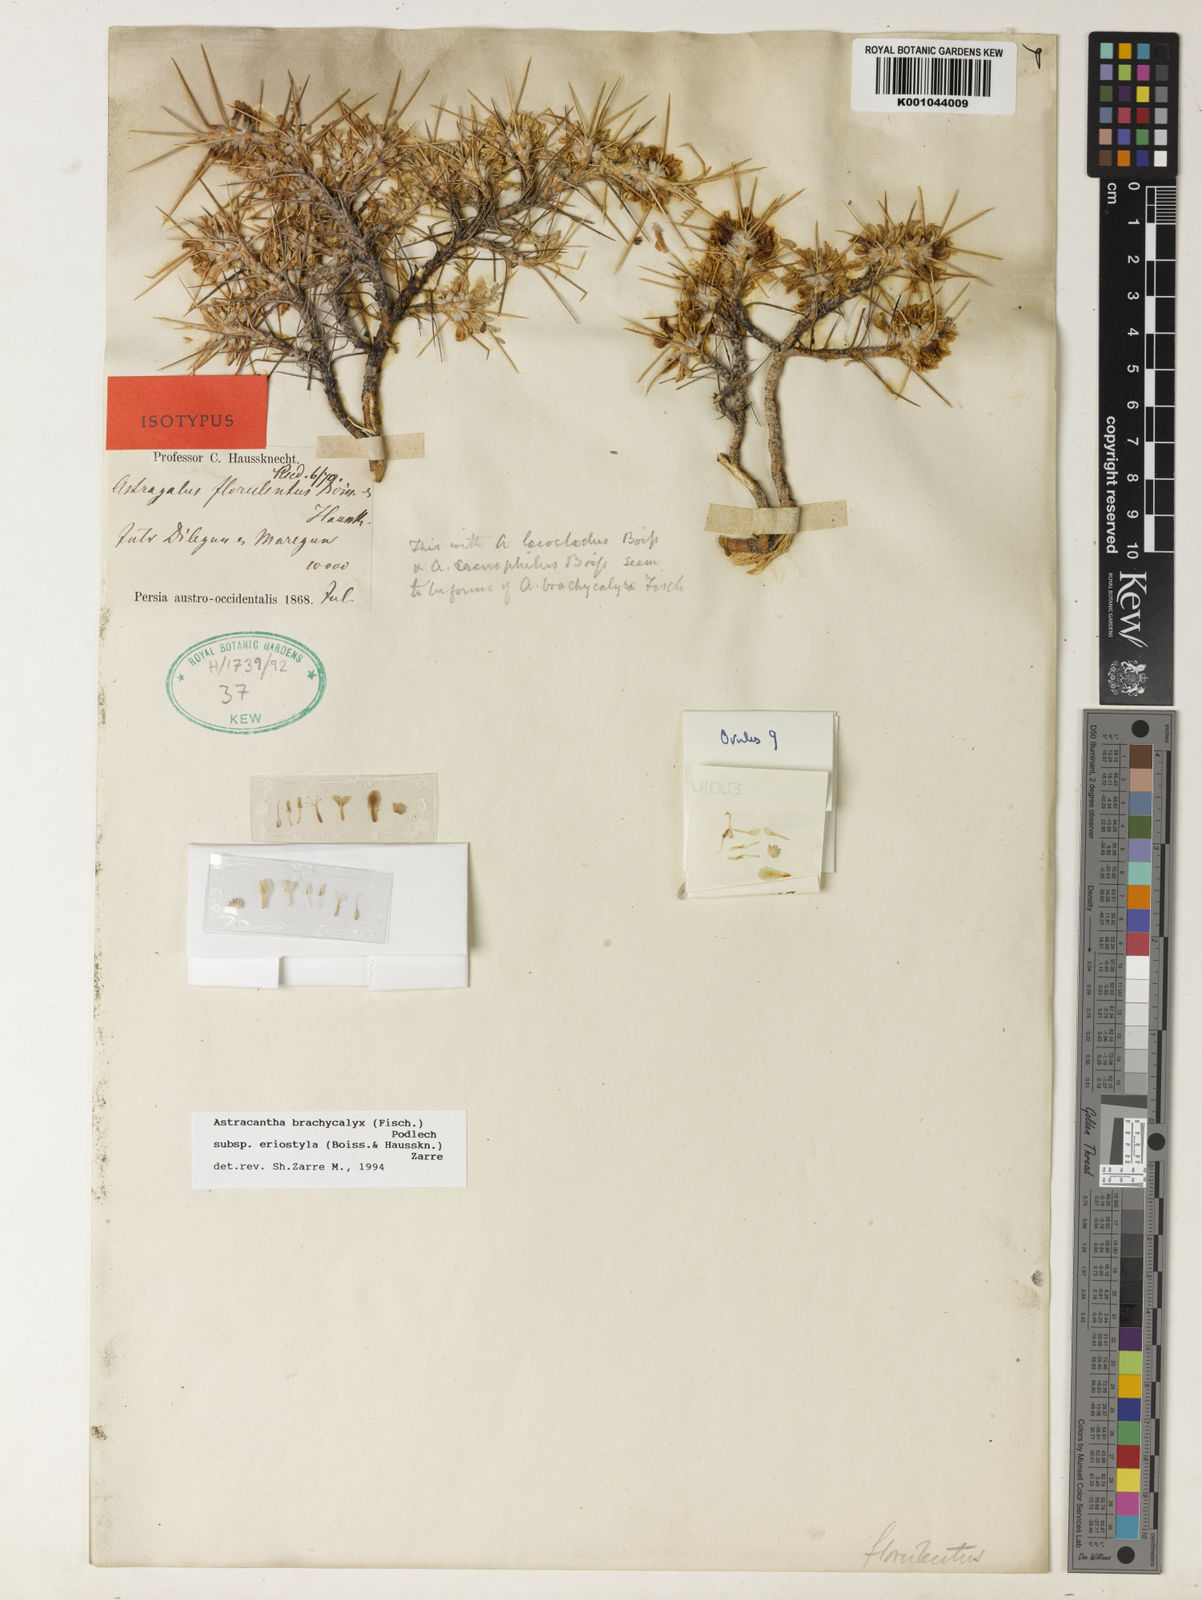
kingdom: Plantae
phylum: Tracheophyta
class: Magnoliopsida
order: Fabales
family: Fabaceae
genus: Astragalus
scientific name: Astragalus brachycalyx
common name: Persian manna
